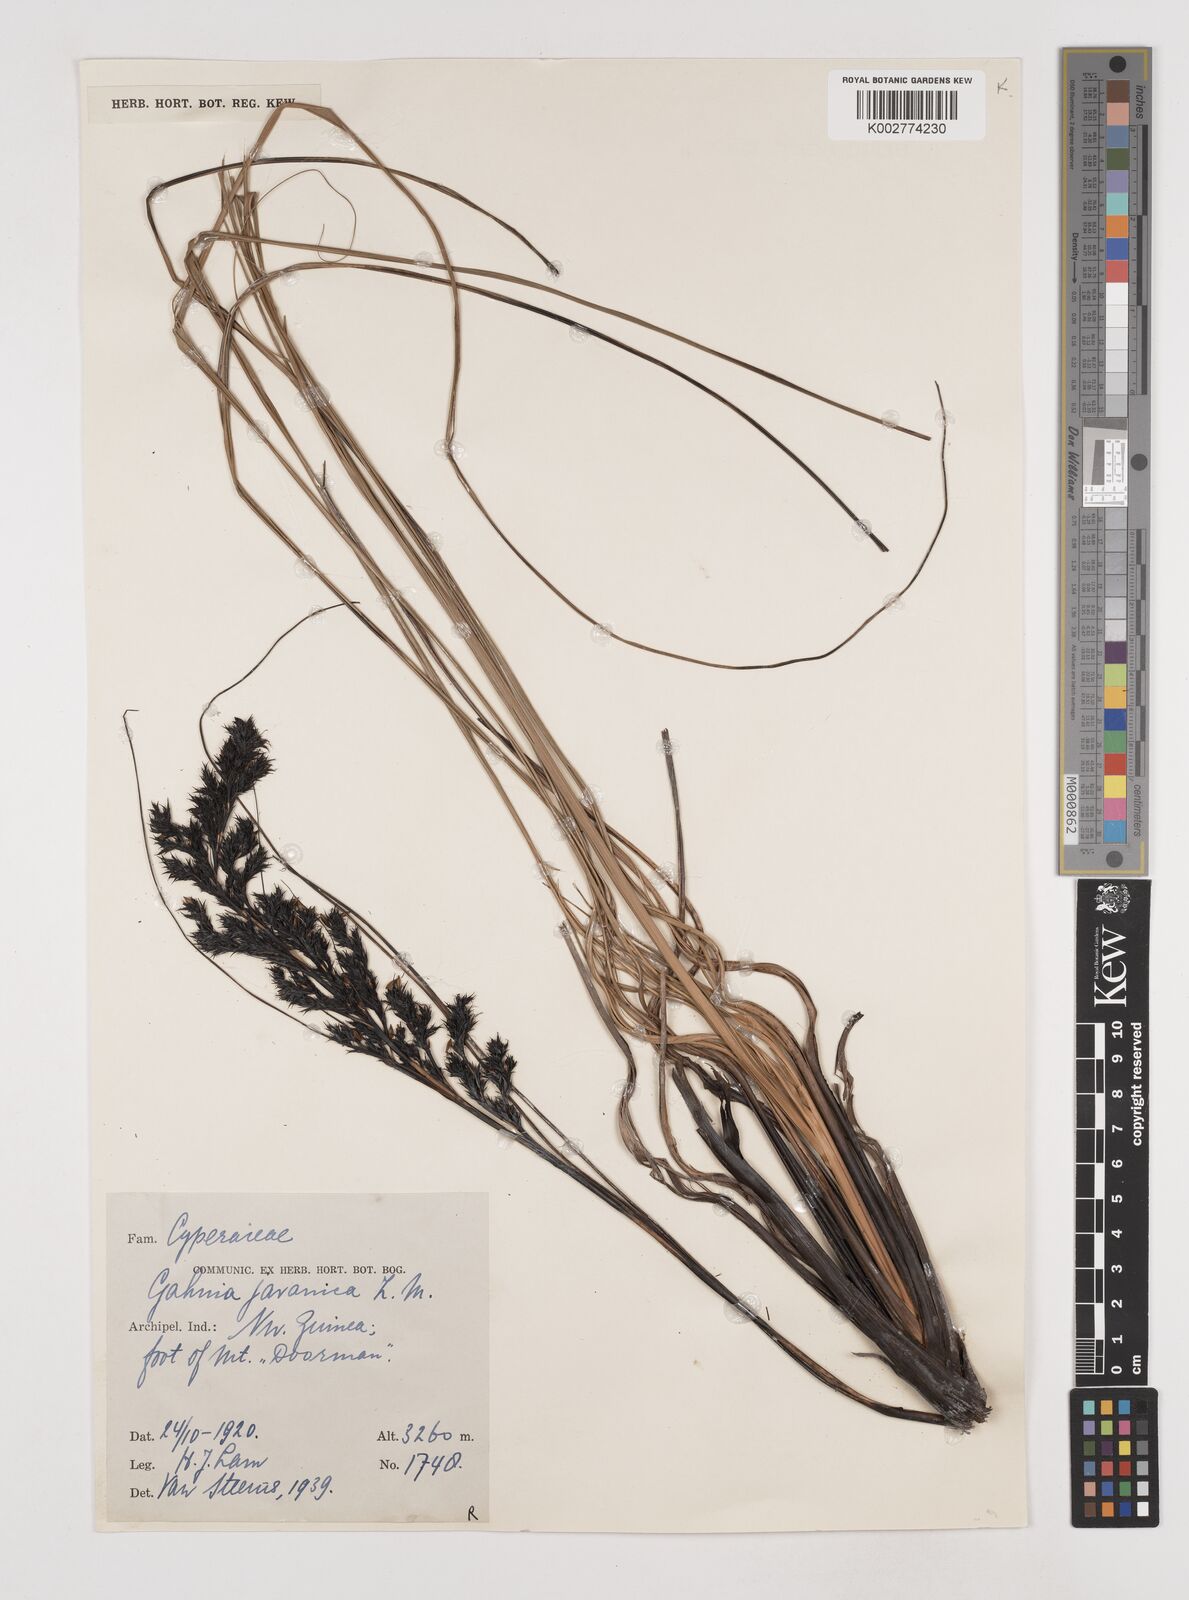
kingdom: Plantae
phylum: Tracheophyta
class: Liliopsida
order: Poales
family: Cyperaceae
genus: Gahnia
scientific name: Gahnia javanica
